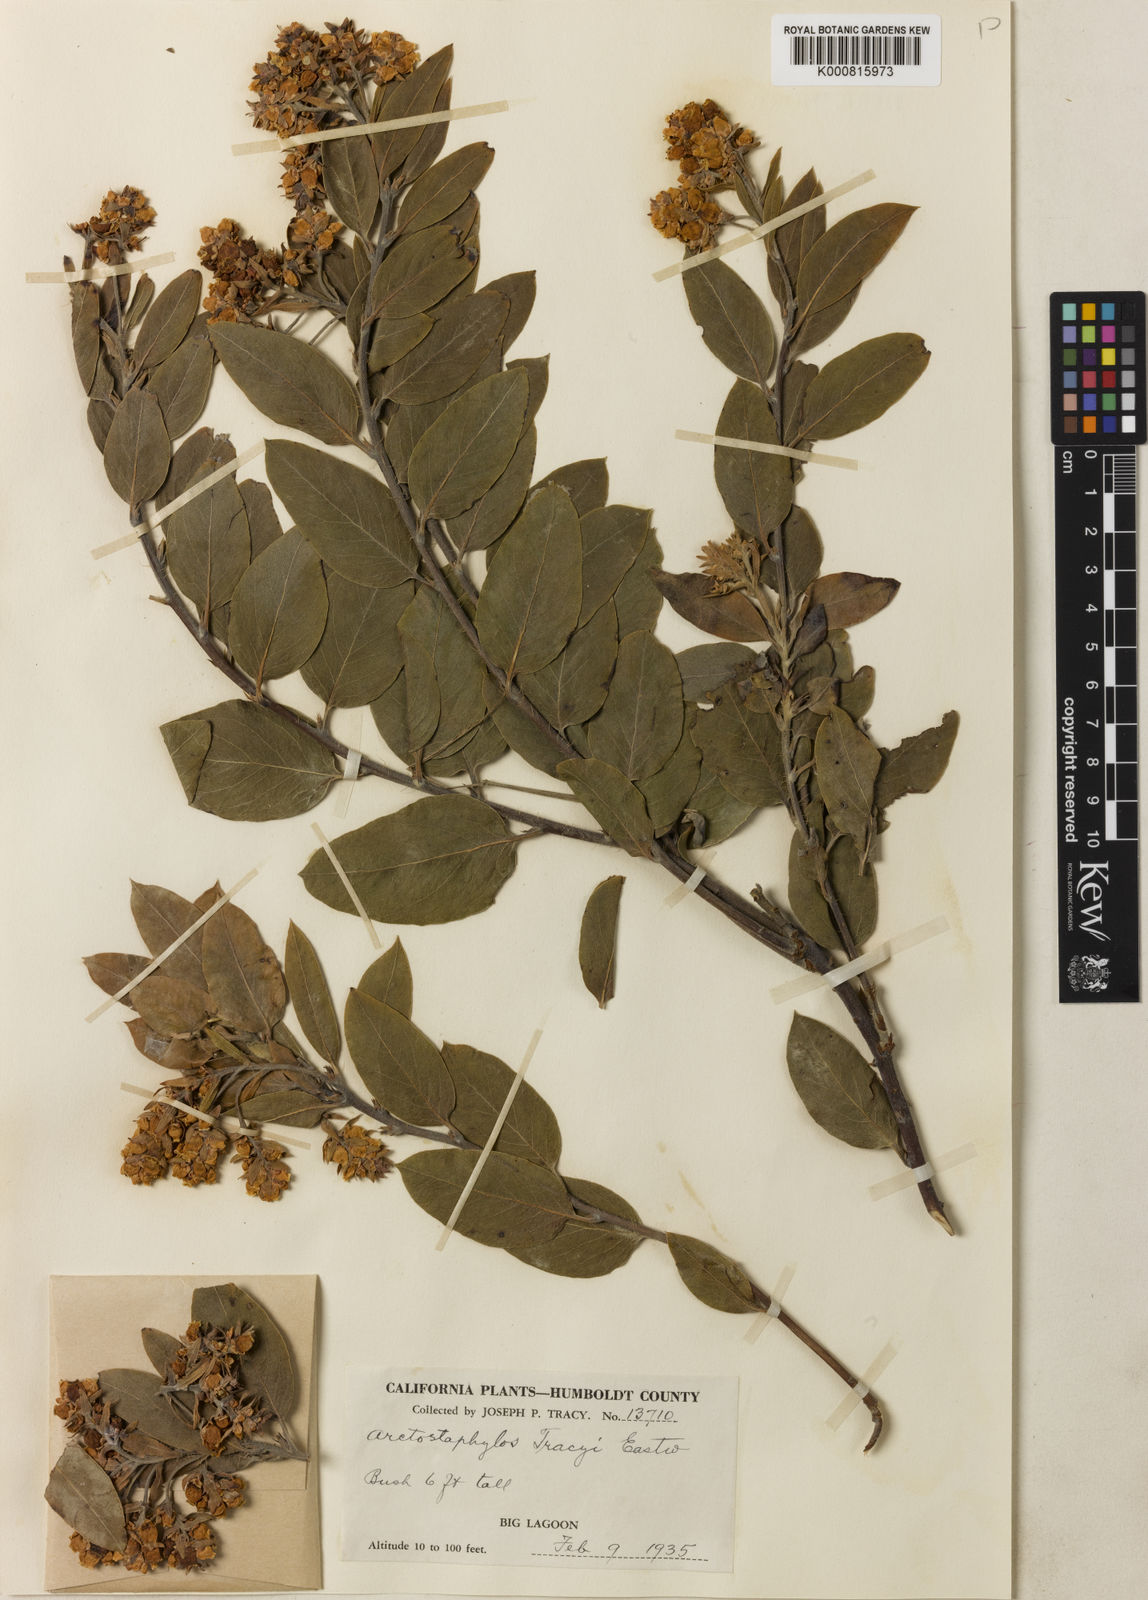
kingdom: Plantae
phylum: Tracheophyta
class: Magnoliopsida
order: Ericales
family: Ericaceae
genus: Arctostaphylos
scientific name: Arctostaphylos columbiana
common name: Bristly bearberry
